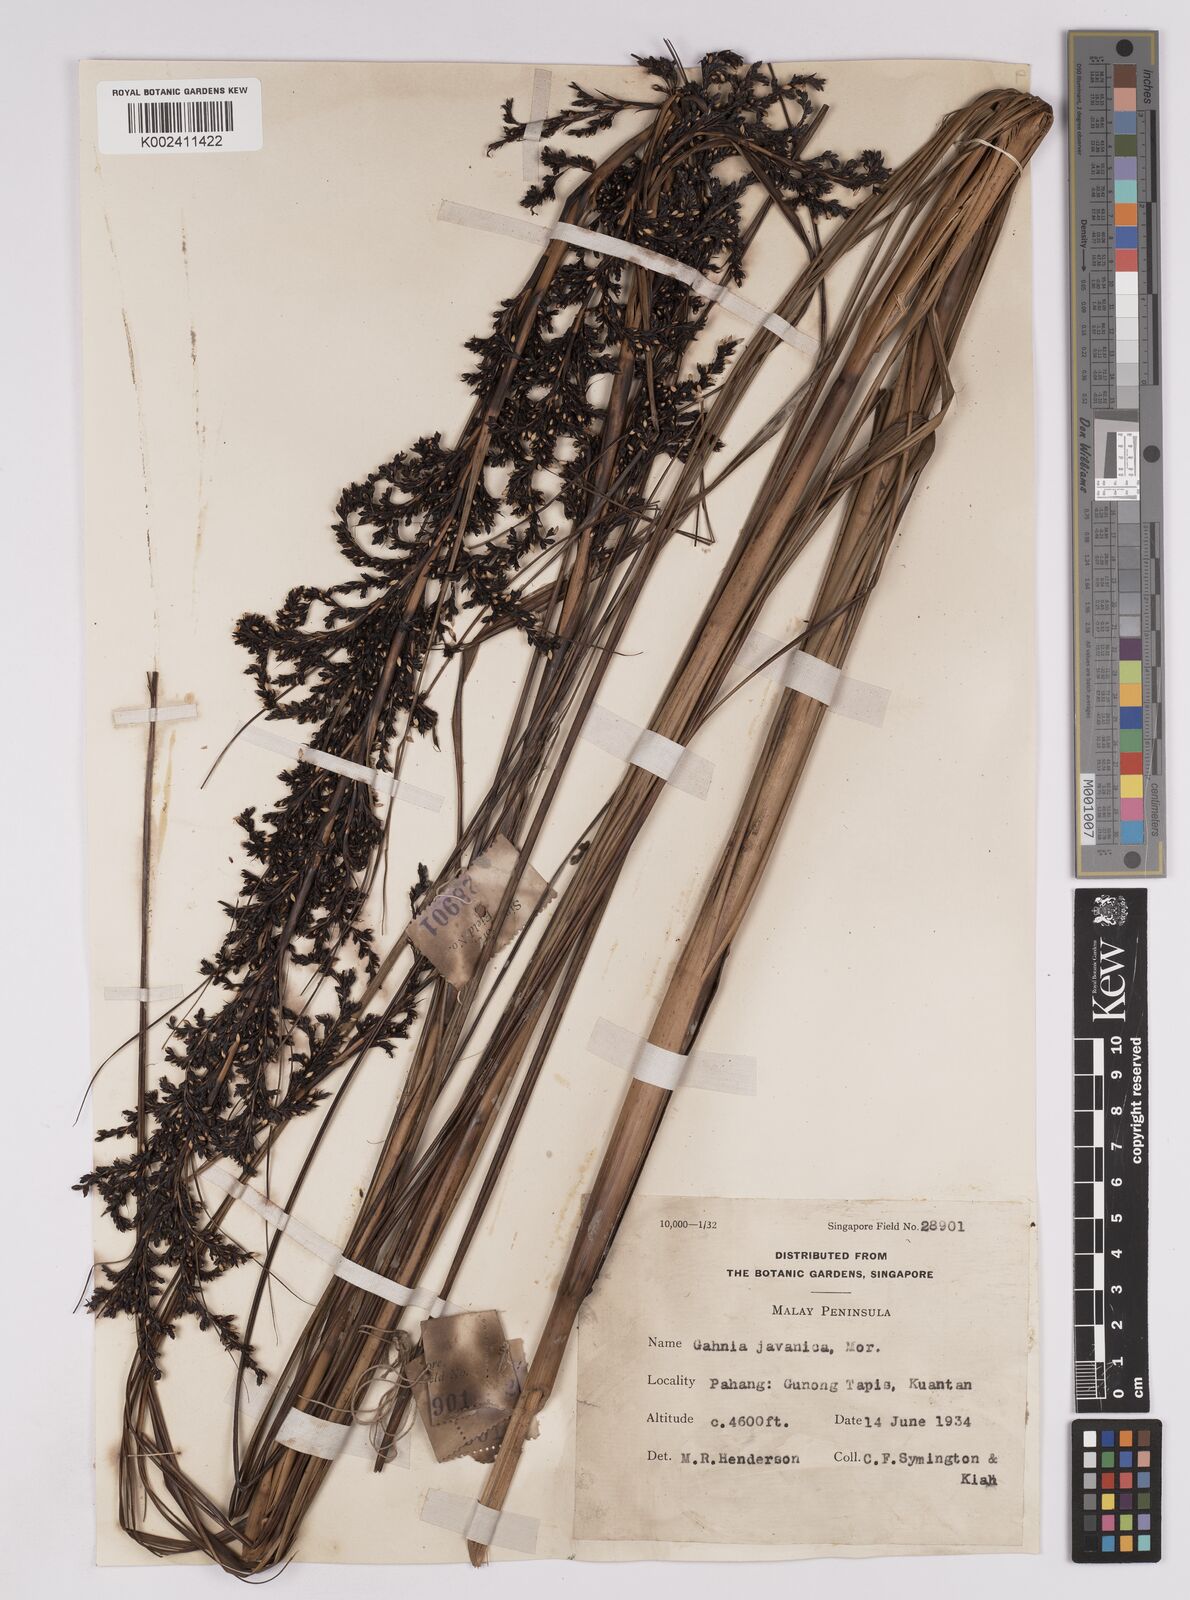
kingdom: Plantae
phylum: Tracheophyta
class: Liliopsida
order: Poales
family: Cyperaceae
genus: Gahnia
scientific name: Gahnia baniensis
